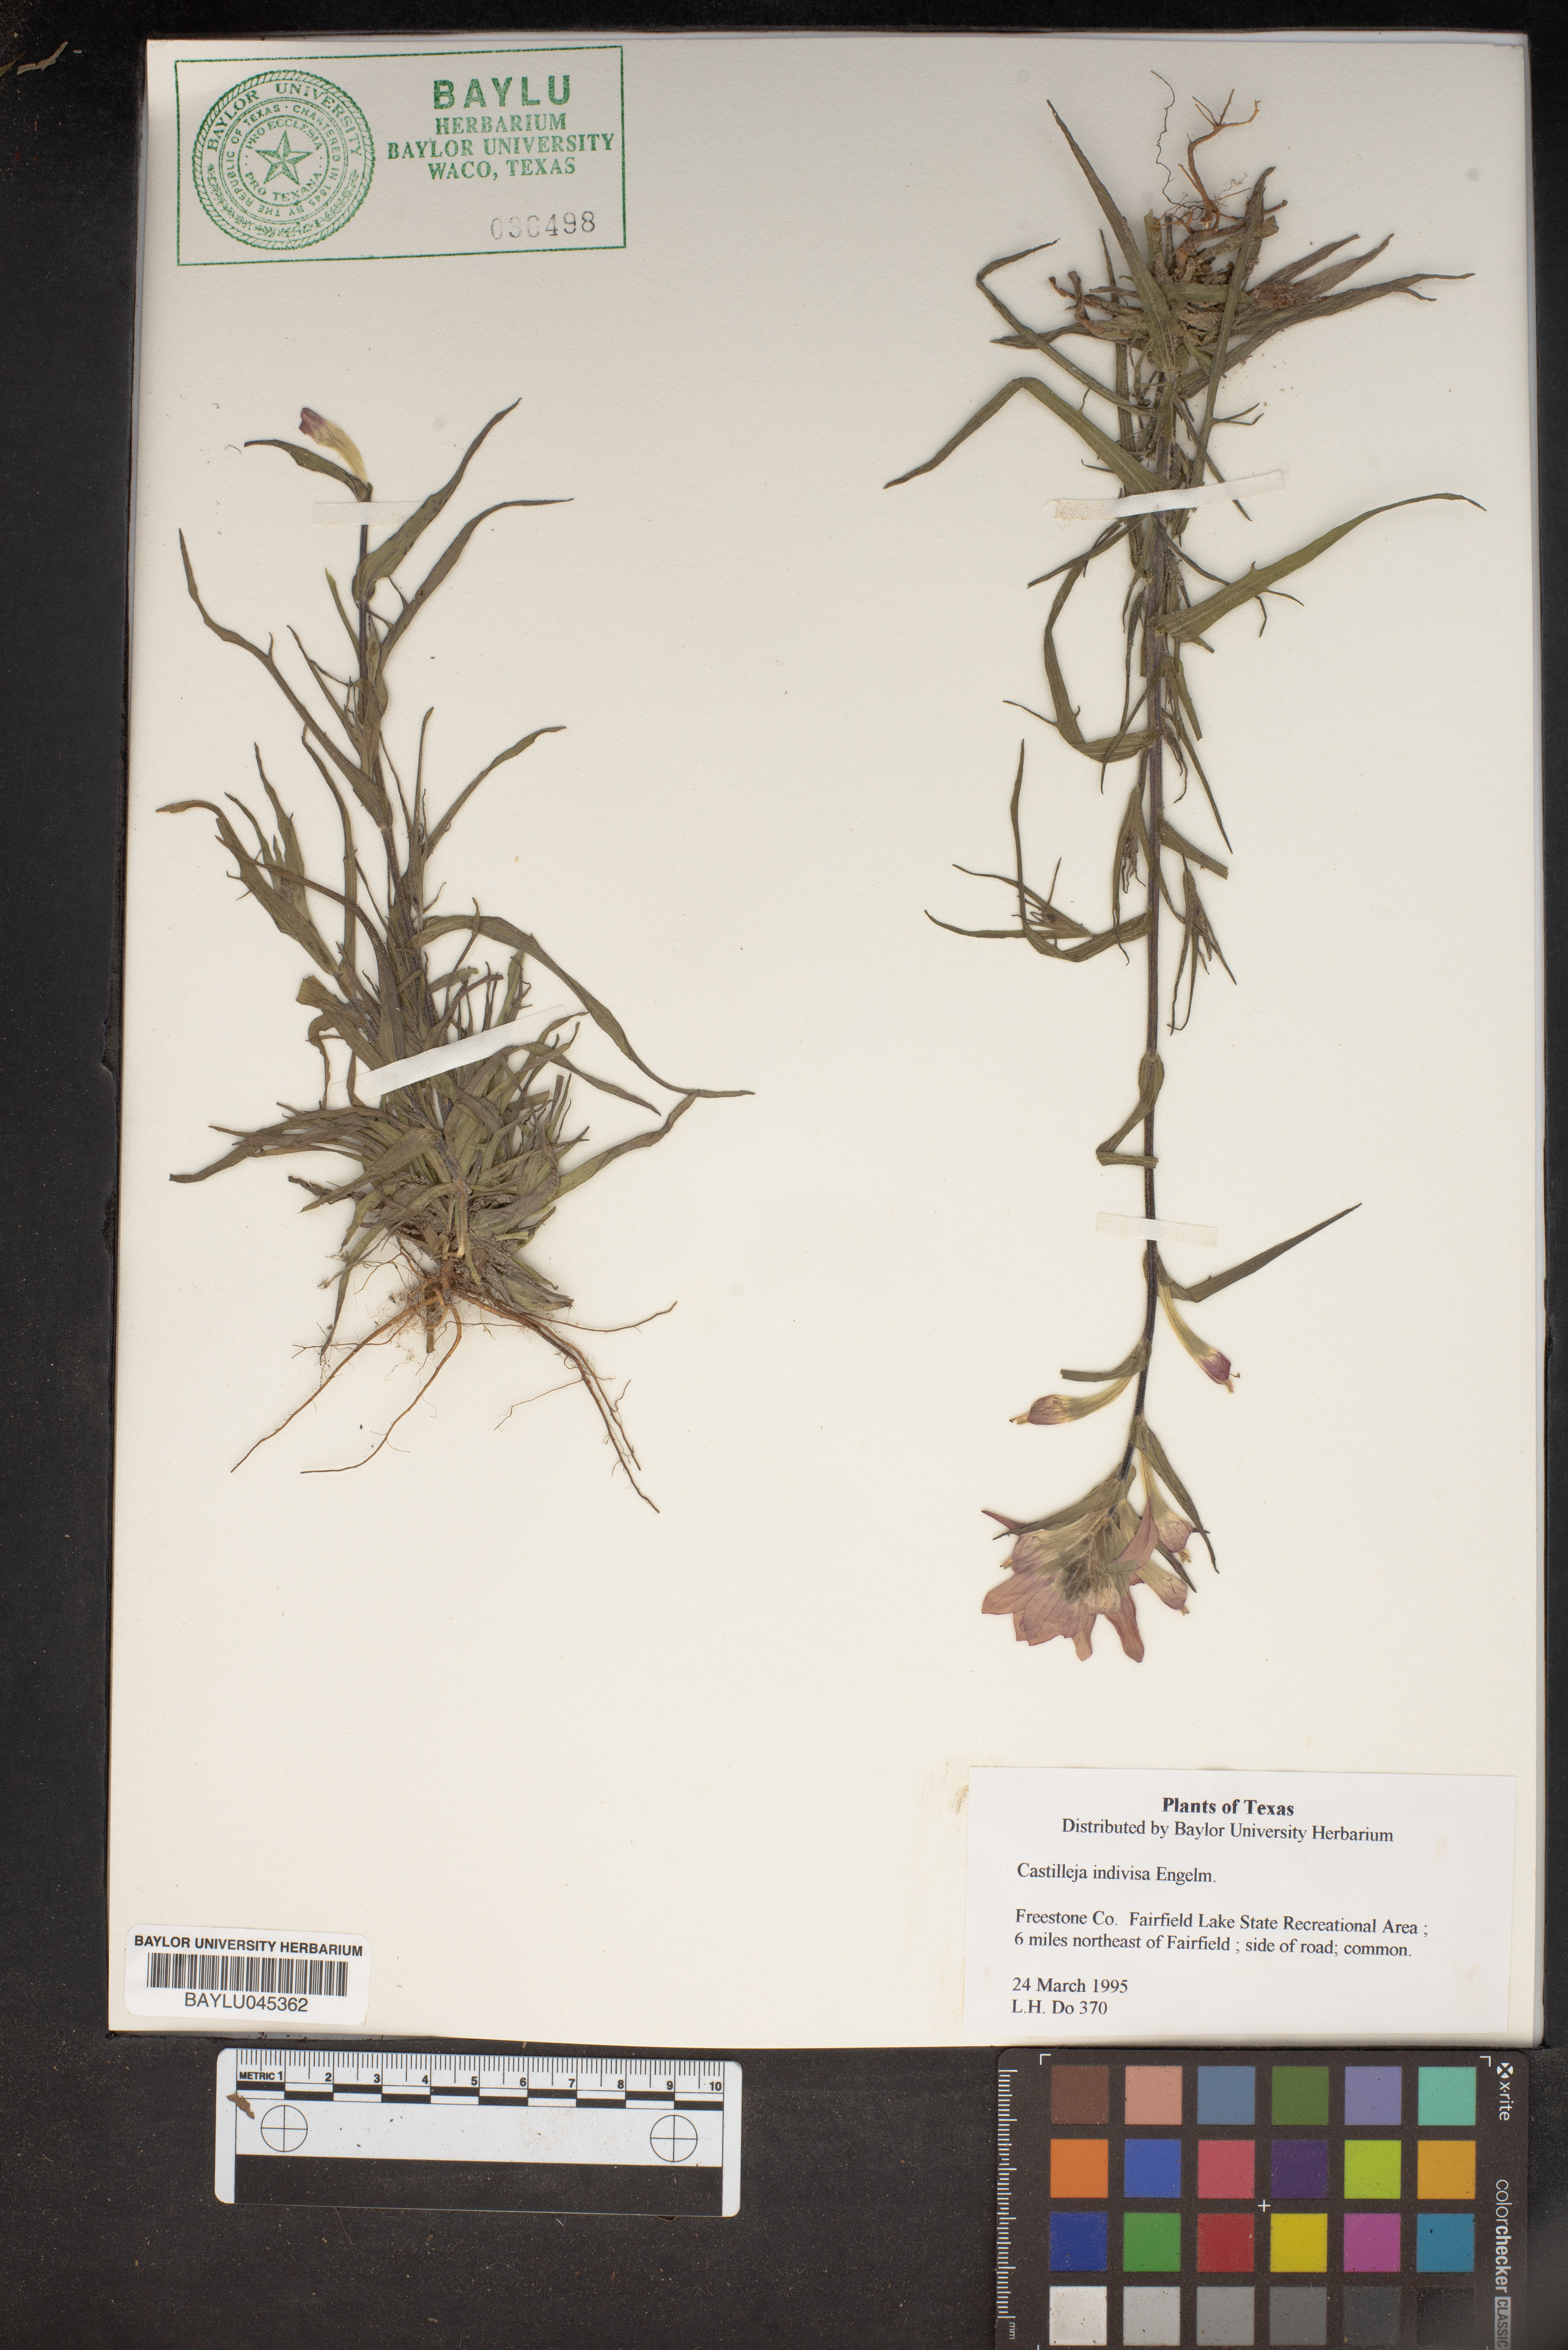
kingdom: Plantae
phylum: Tracheophyta
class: Magnoliopsida
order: Lamiales
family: Orobanchaceae
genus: Castilleja
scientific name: Castilleja indivisa
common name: Texas paintbrush
